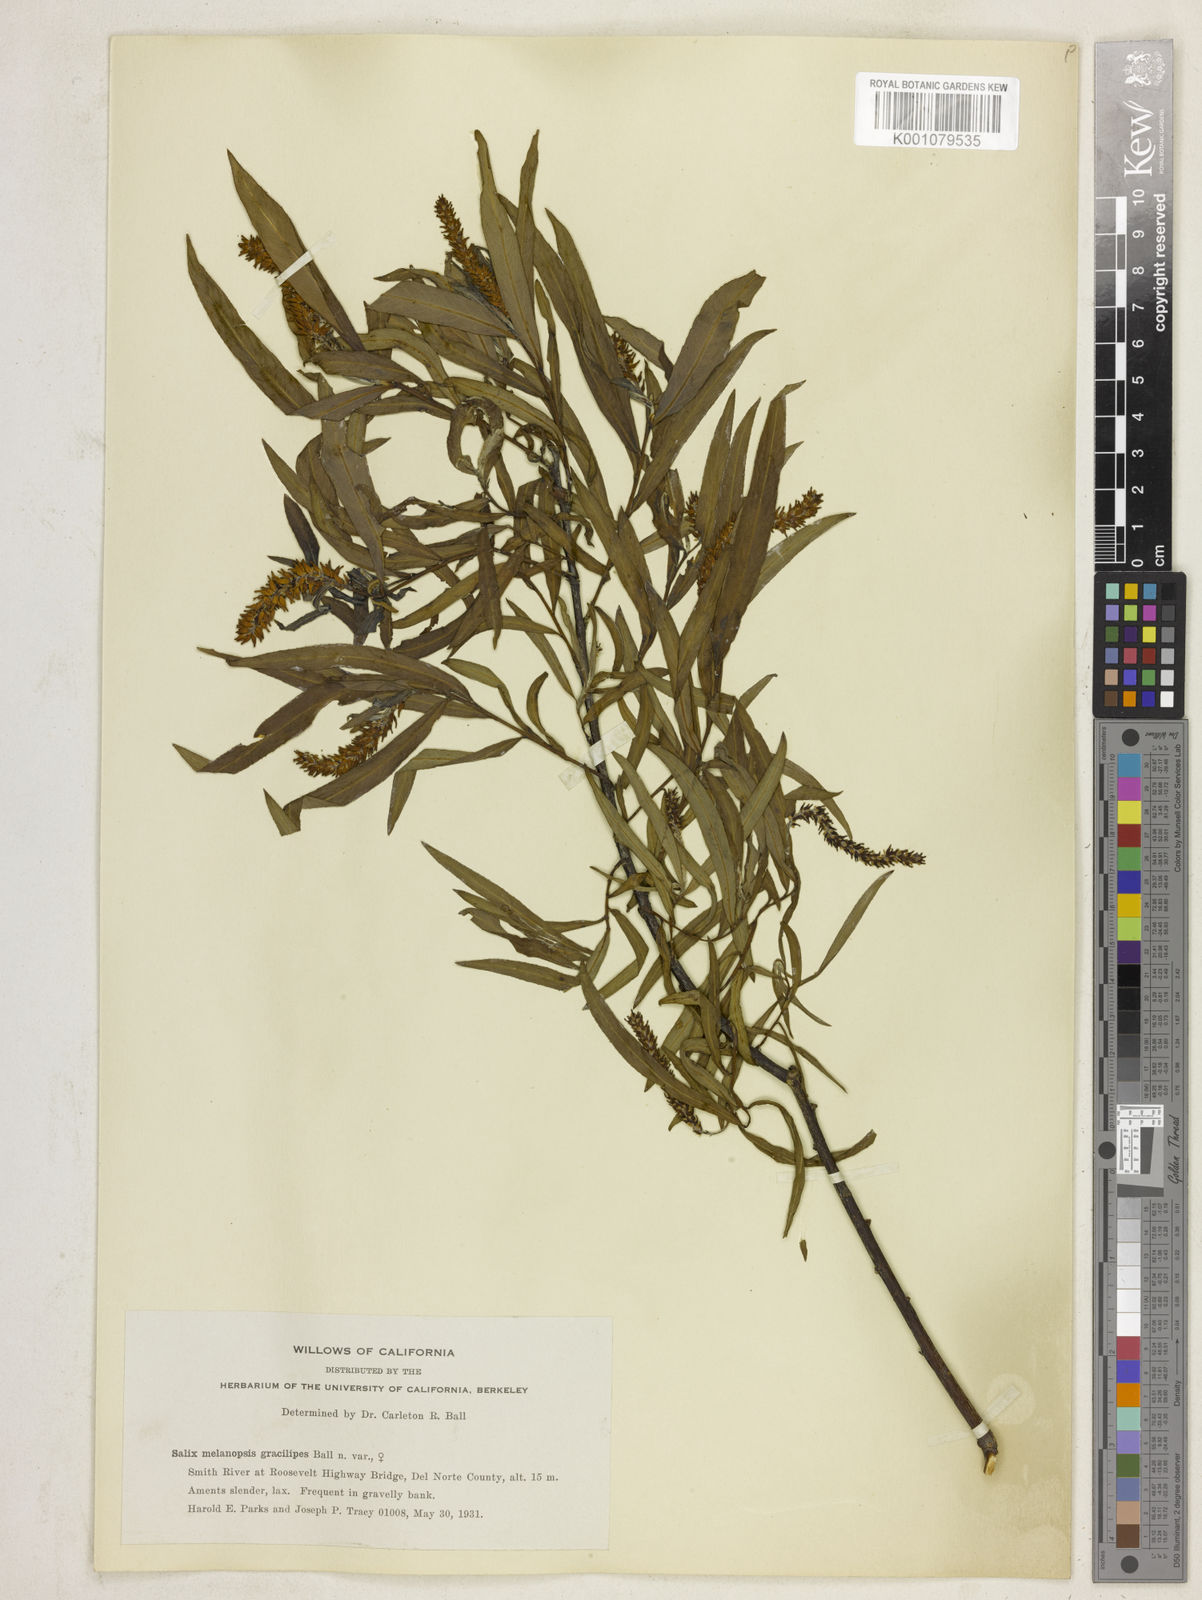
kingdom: Plantae
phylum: Tracheophyta
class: Magnoliopsida
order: Malpighiales
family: Salicaceae
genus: Salix
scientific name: Salix melanopsis
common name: Dusky willow
